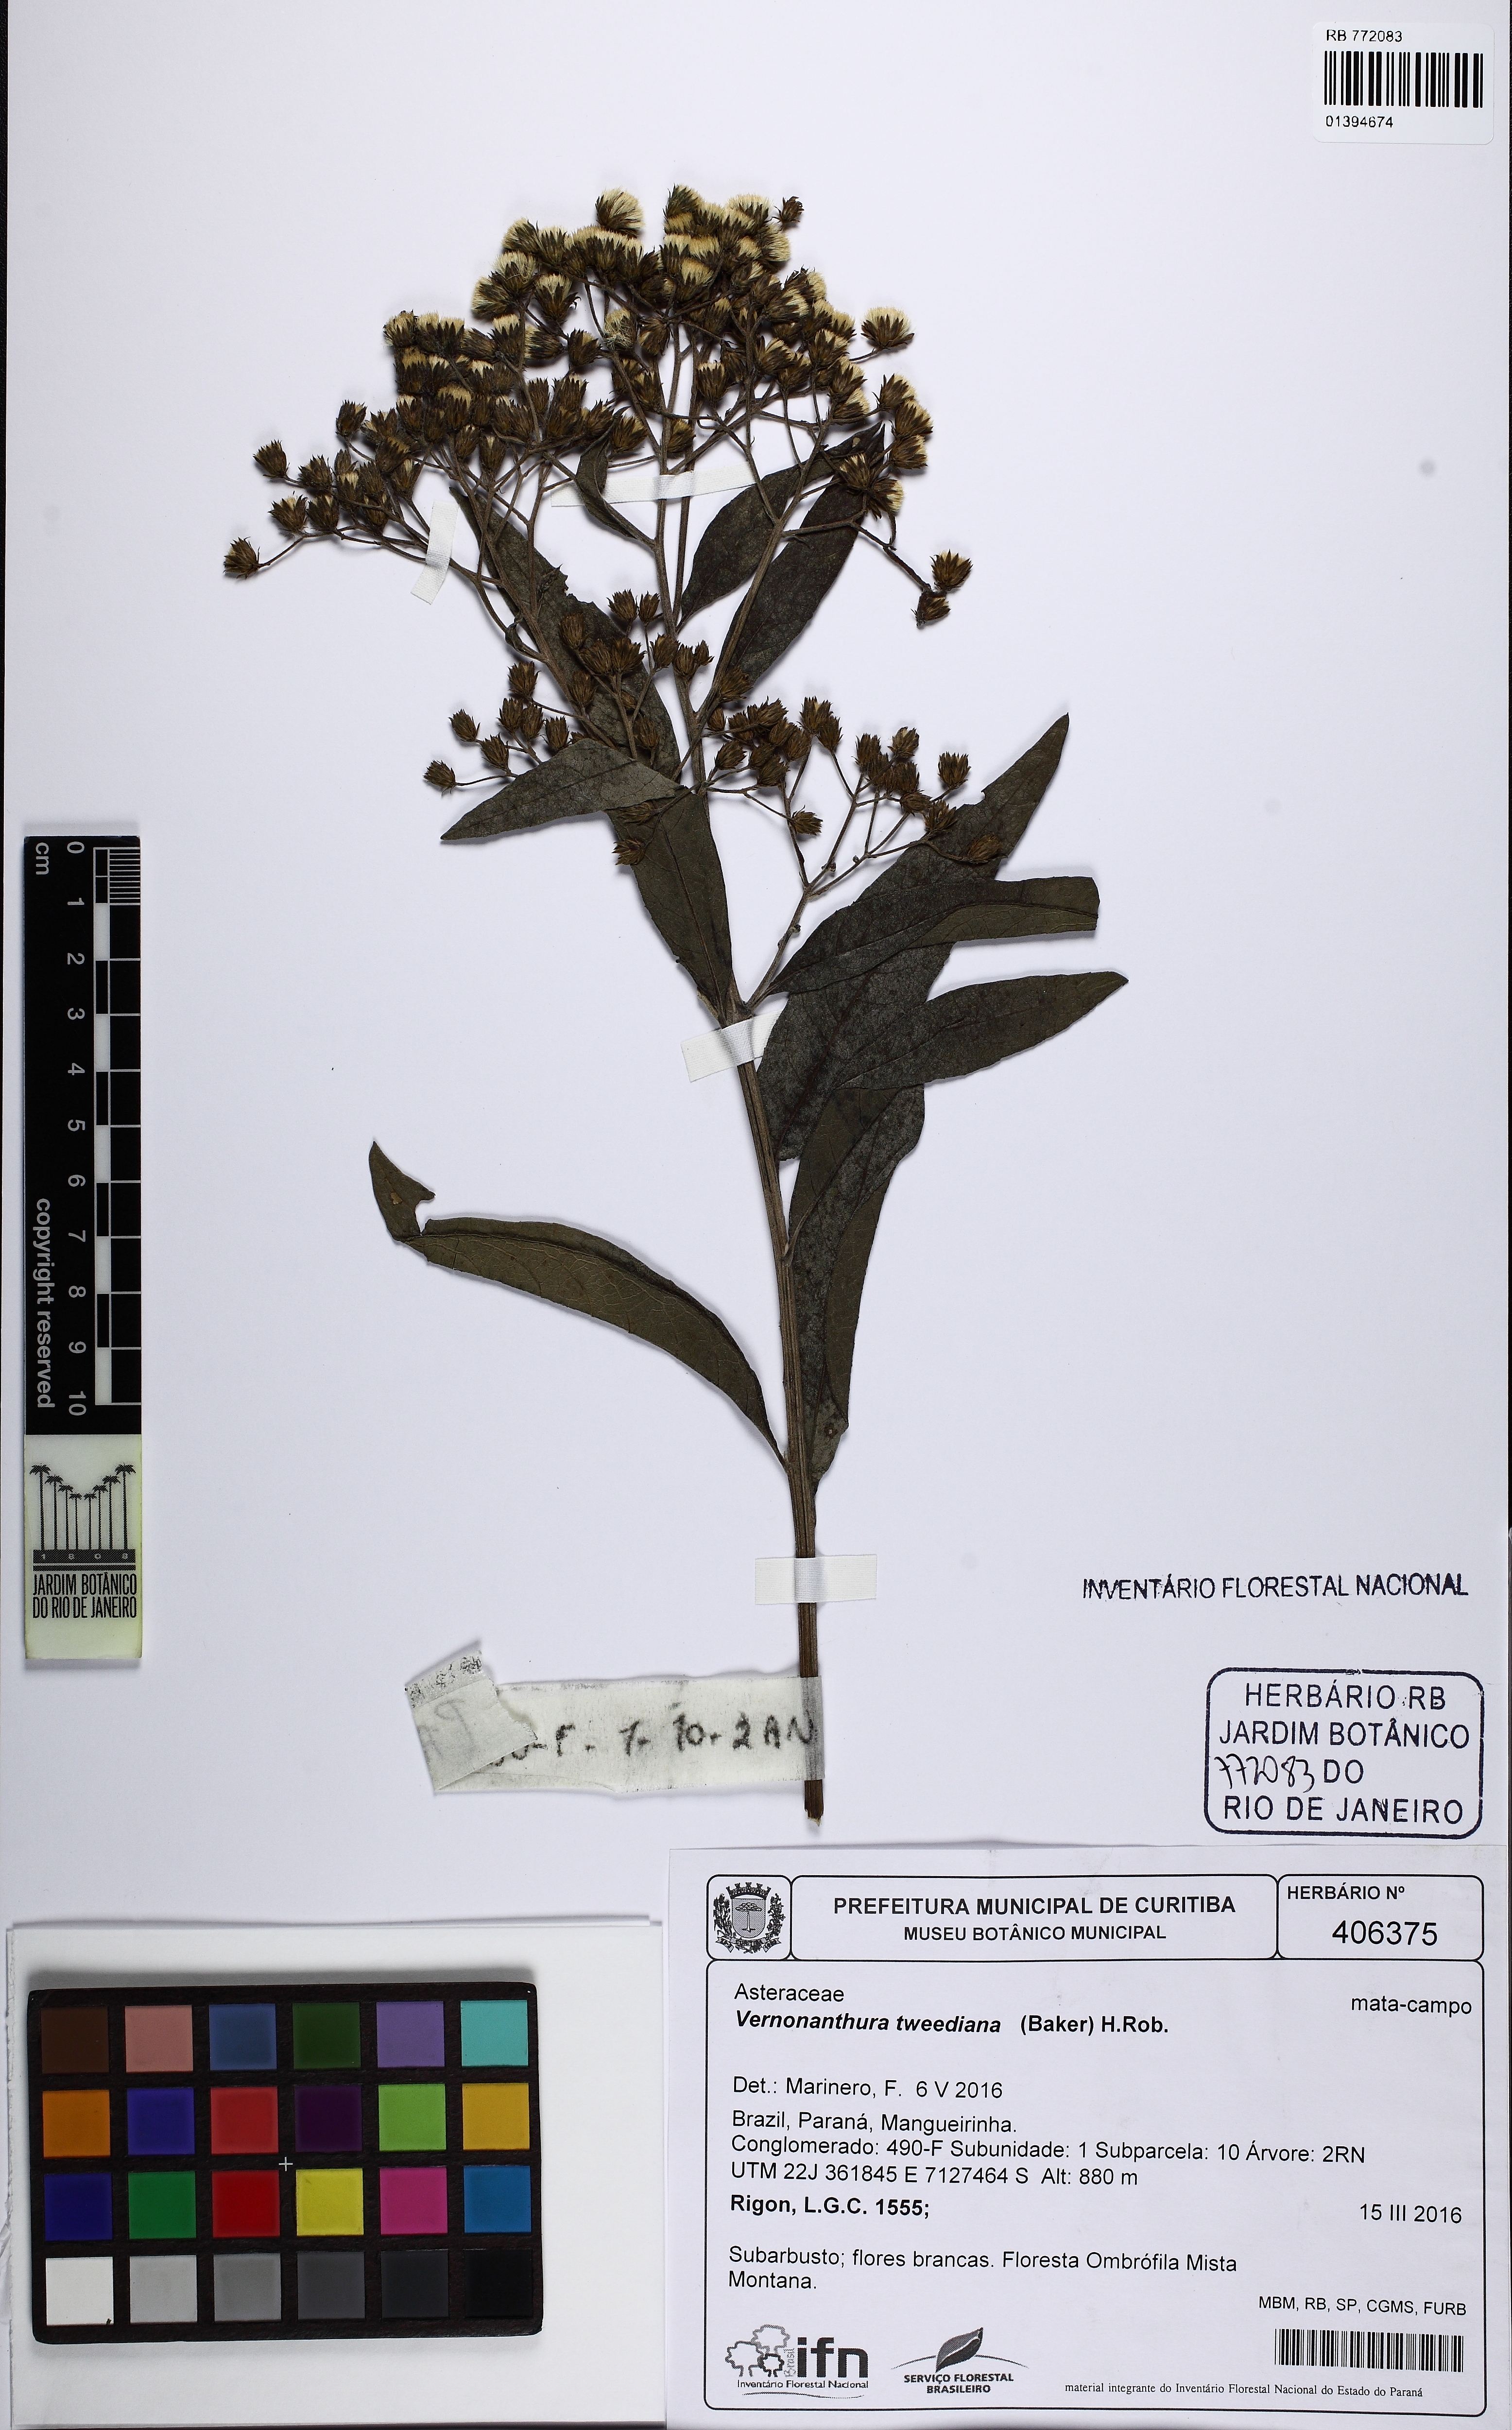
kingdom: Plantae
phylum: Tracheophyta
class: Magnoliopsida
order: Asterales
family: Asteraceae
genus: Vernonanthura
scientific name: Vernonanthura tweediana
